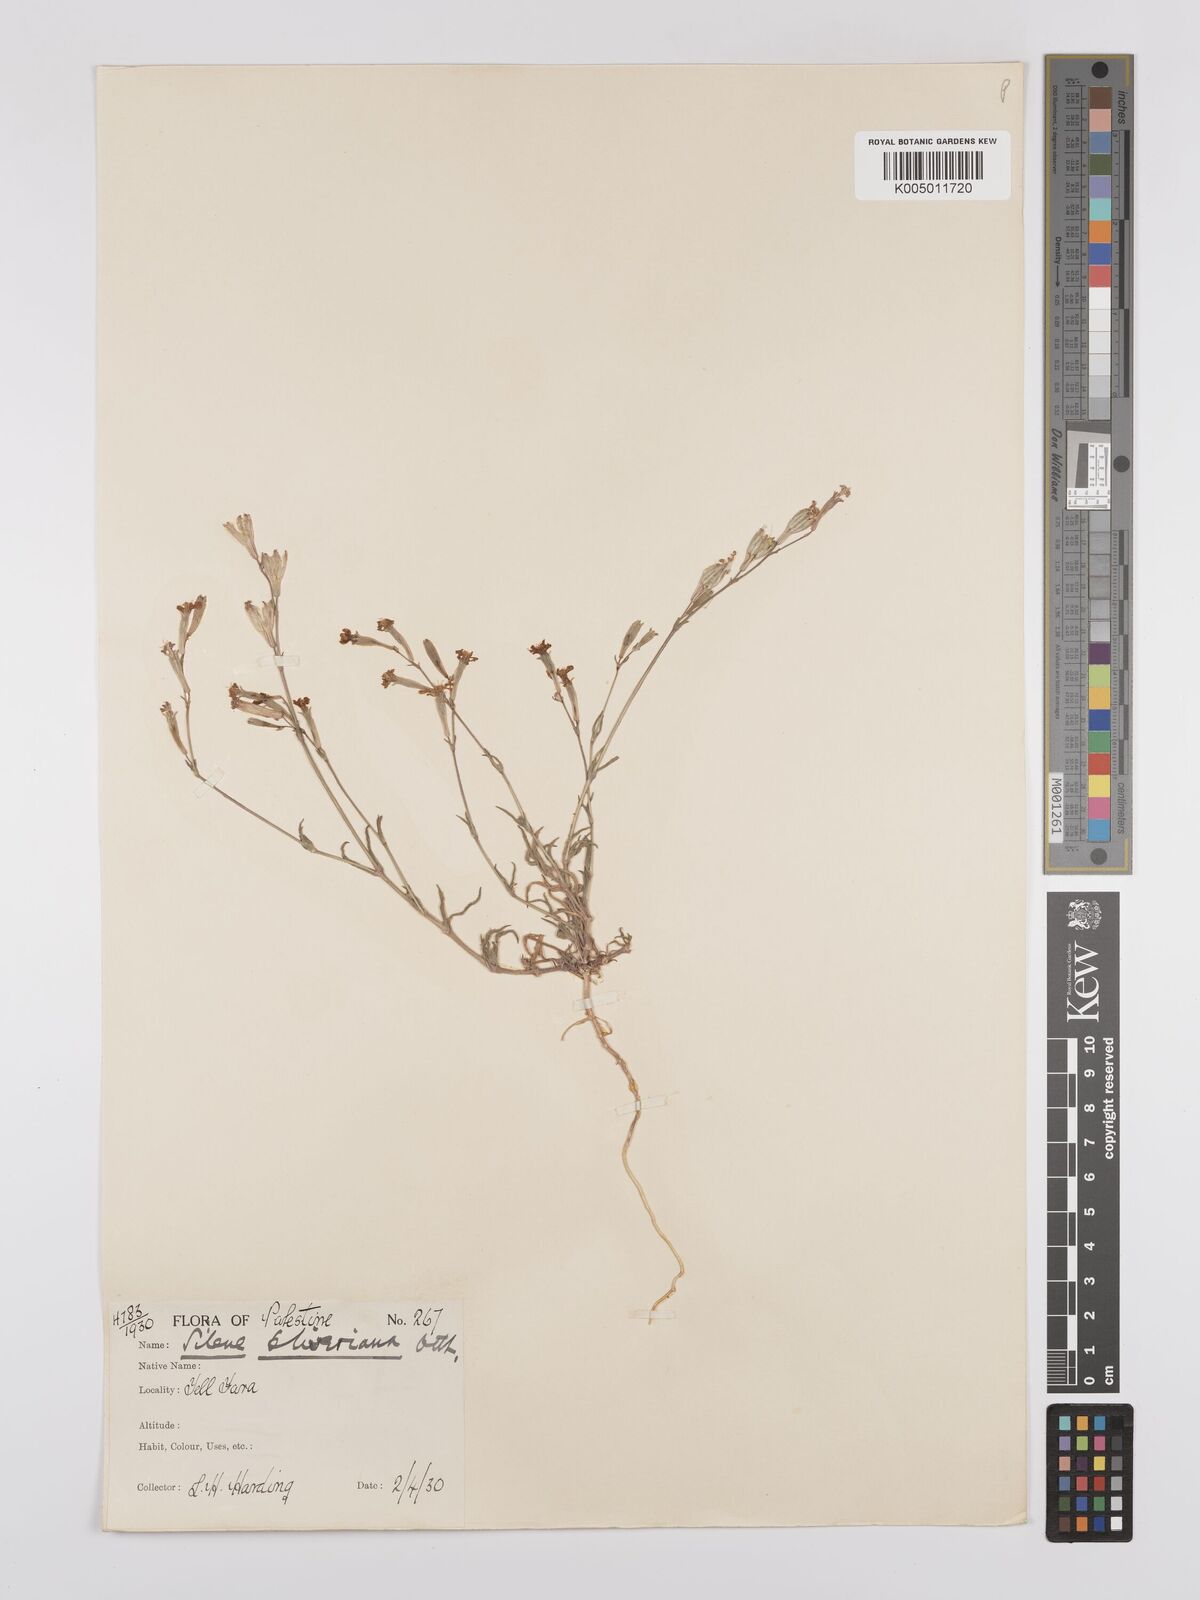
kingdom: Plantae
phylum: Tracheophyta
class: Magnoliopsida
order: Caryophyllales
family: Caryophyllaceae
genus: Silene
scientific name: Silene oliveriana
